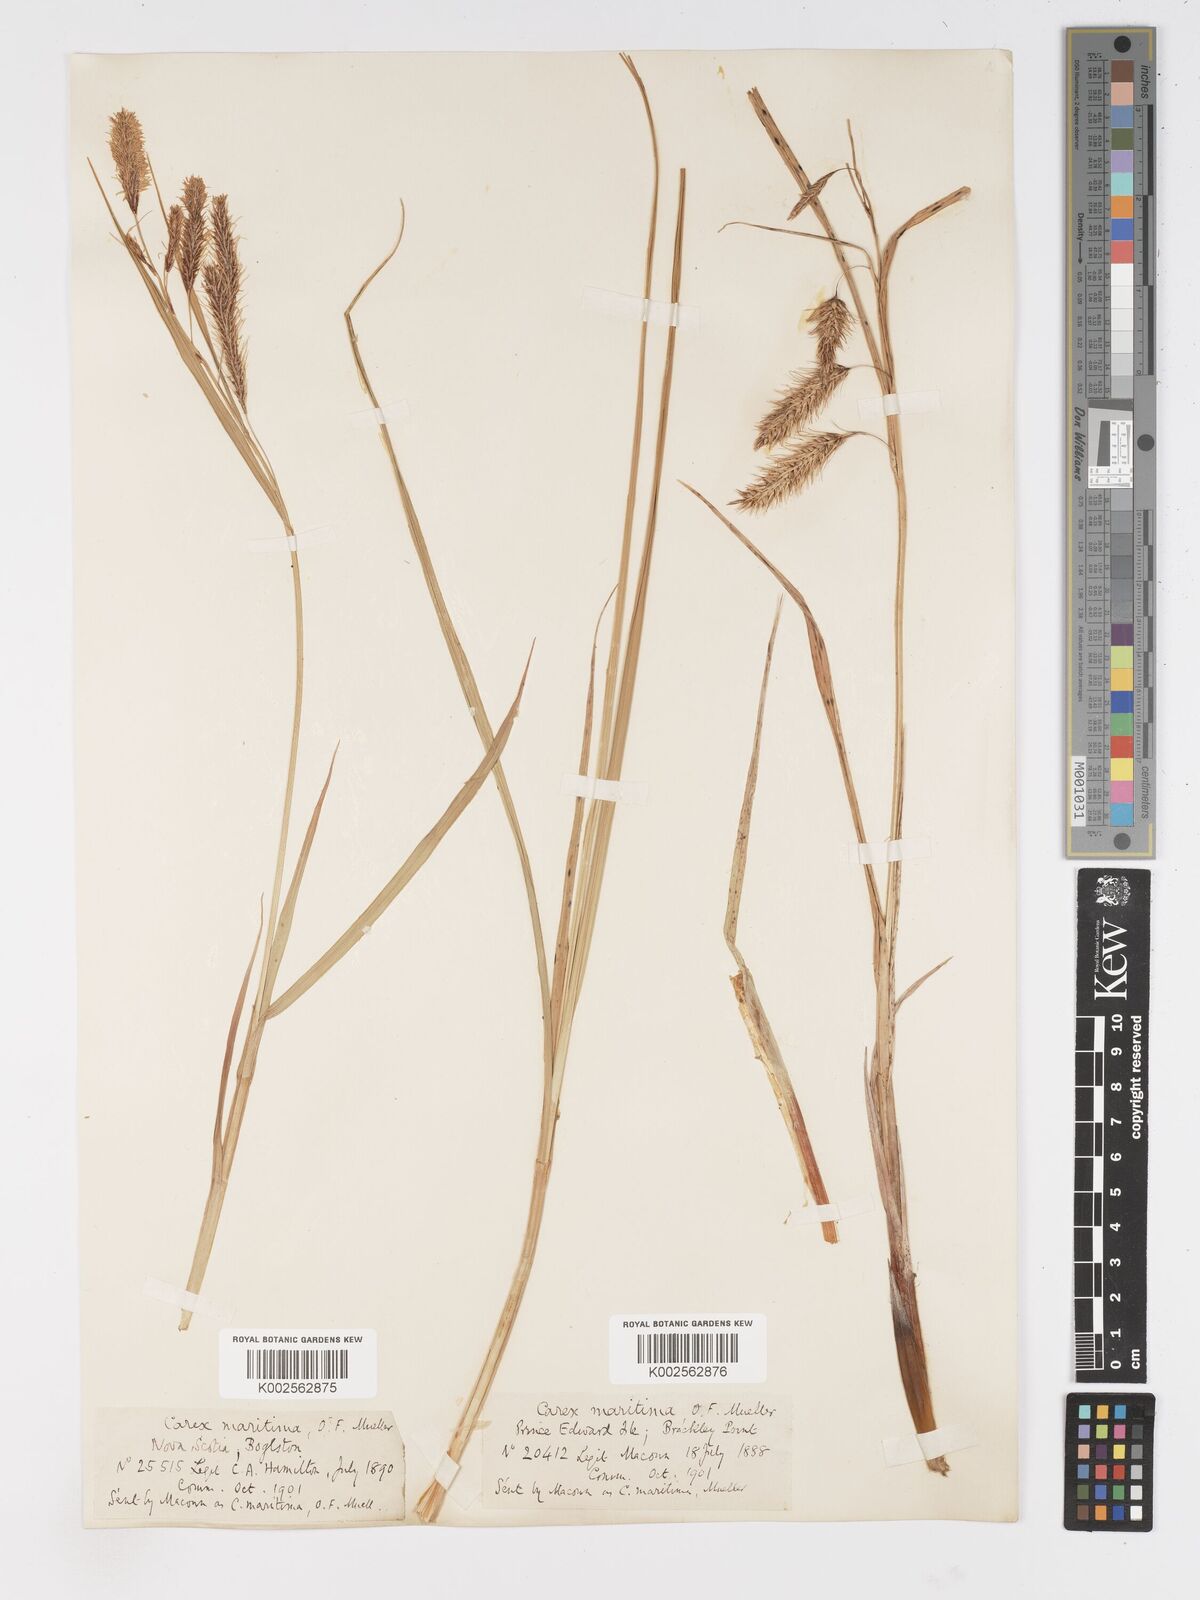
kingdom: Plantae
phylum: Tracheophyta
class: Liliopsida
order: Poales
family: Cyperaceae
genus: Carex
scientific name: Carex paleacea
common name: Chaffy sedge
